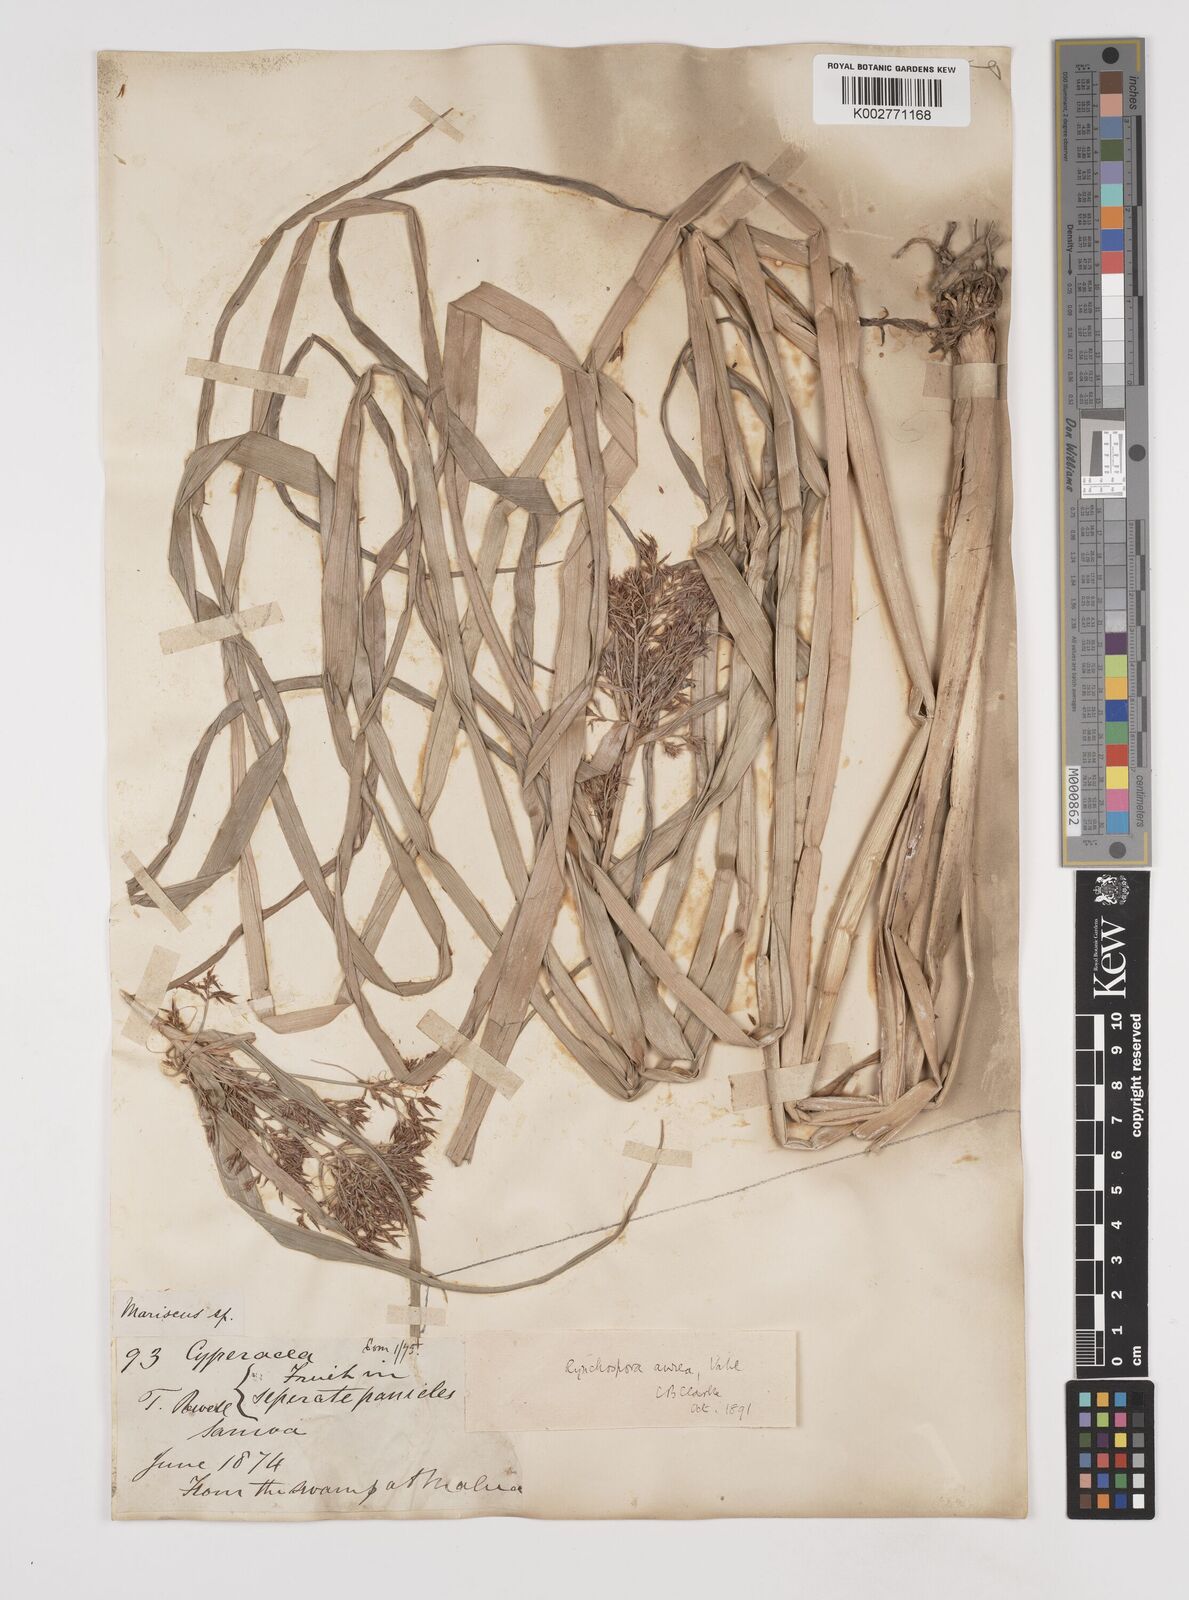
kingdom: Plantae
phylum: Tracheophyta
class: Liliopsida
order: Poales
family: Cyperaceae
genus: Rhynchospora
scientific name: Rhynchospora corymbosa
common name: Golden beak sedge
